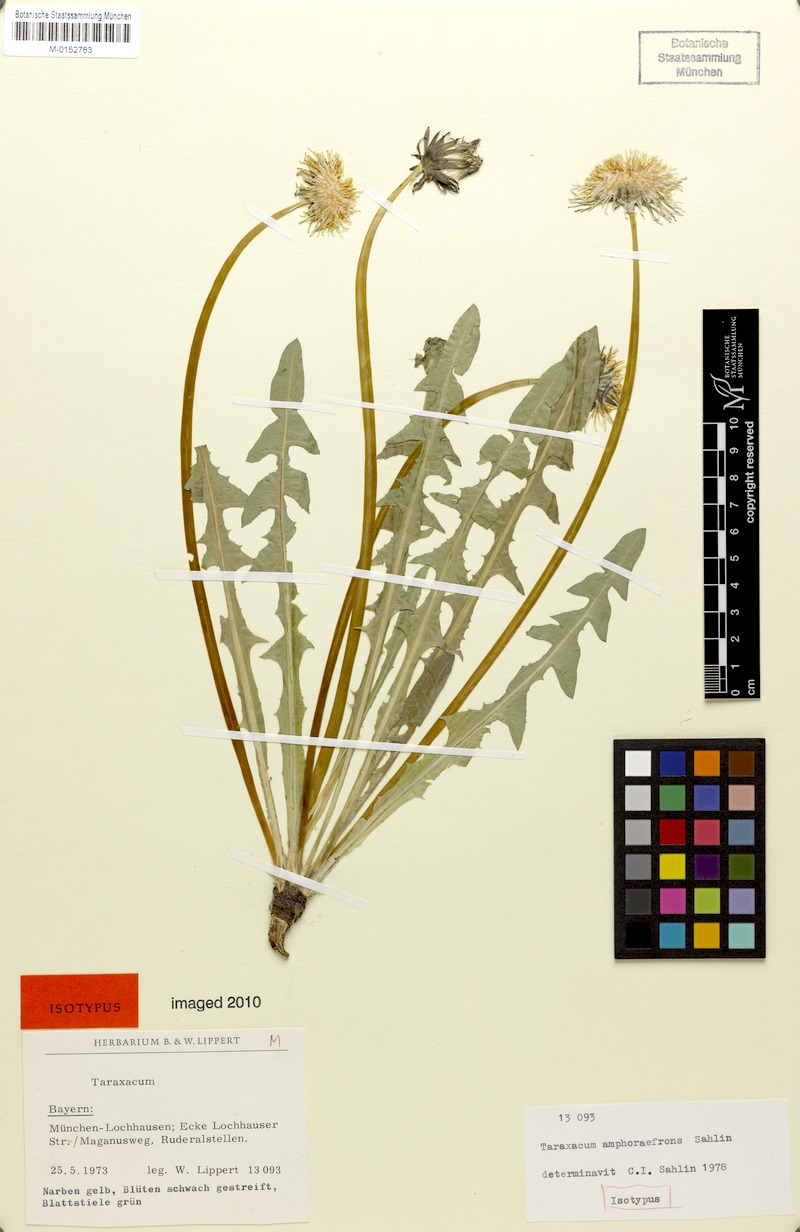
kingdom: Plantae
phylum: Tracheophyta
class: Magnoliopsida
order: Asterales
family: Asteraceae
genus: Taraxacum
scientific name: Taraxacum amphoraefrons
